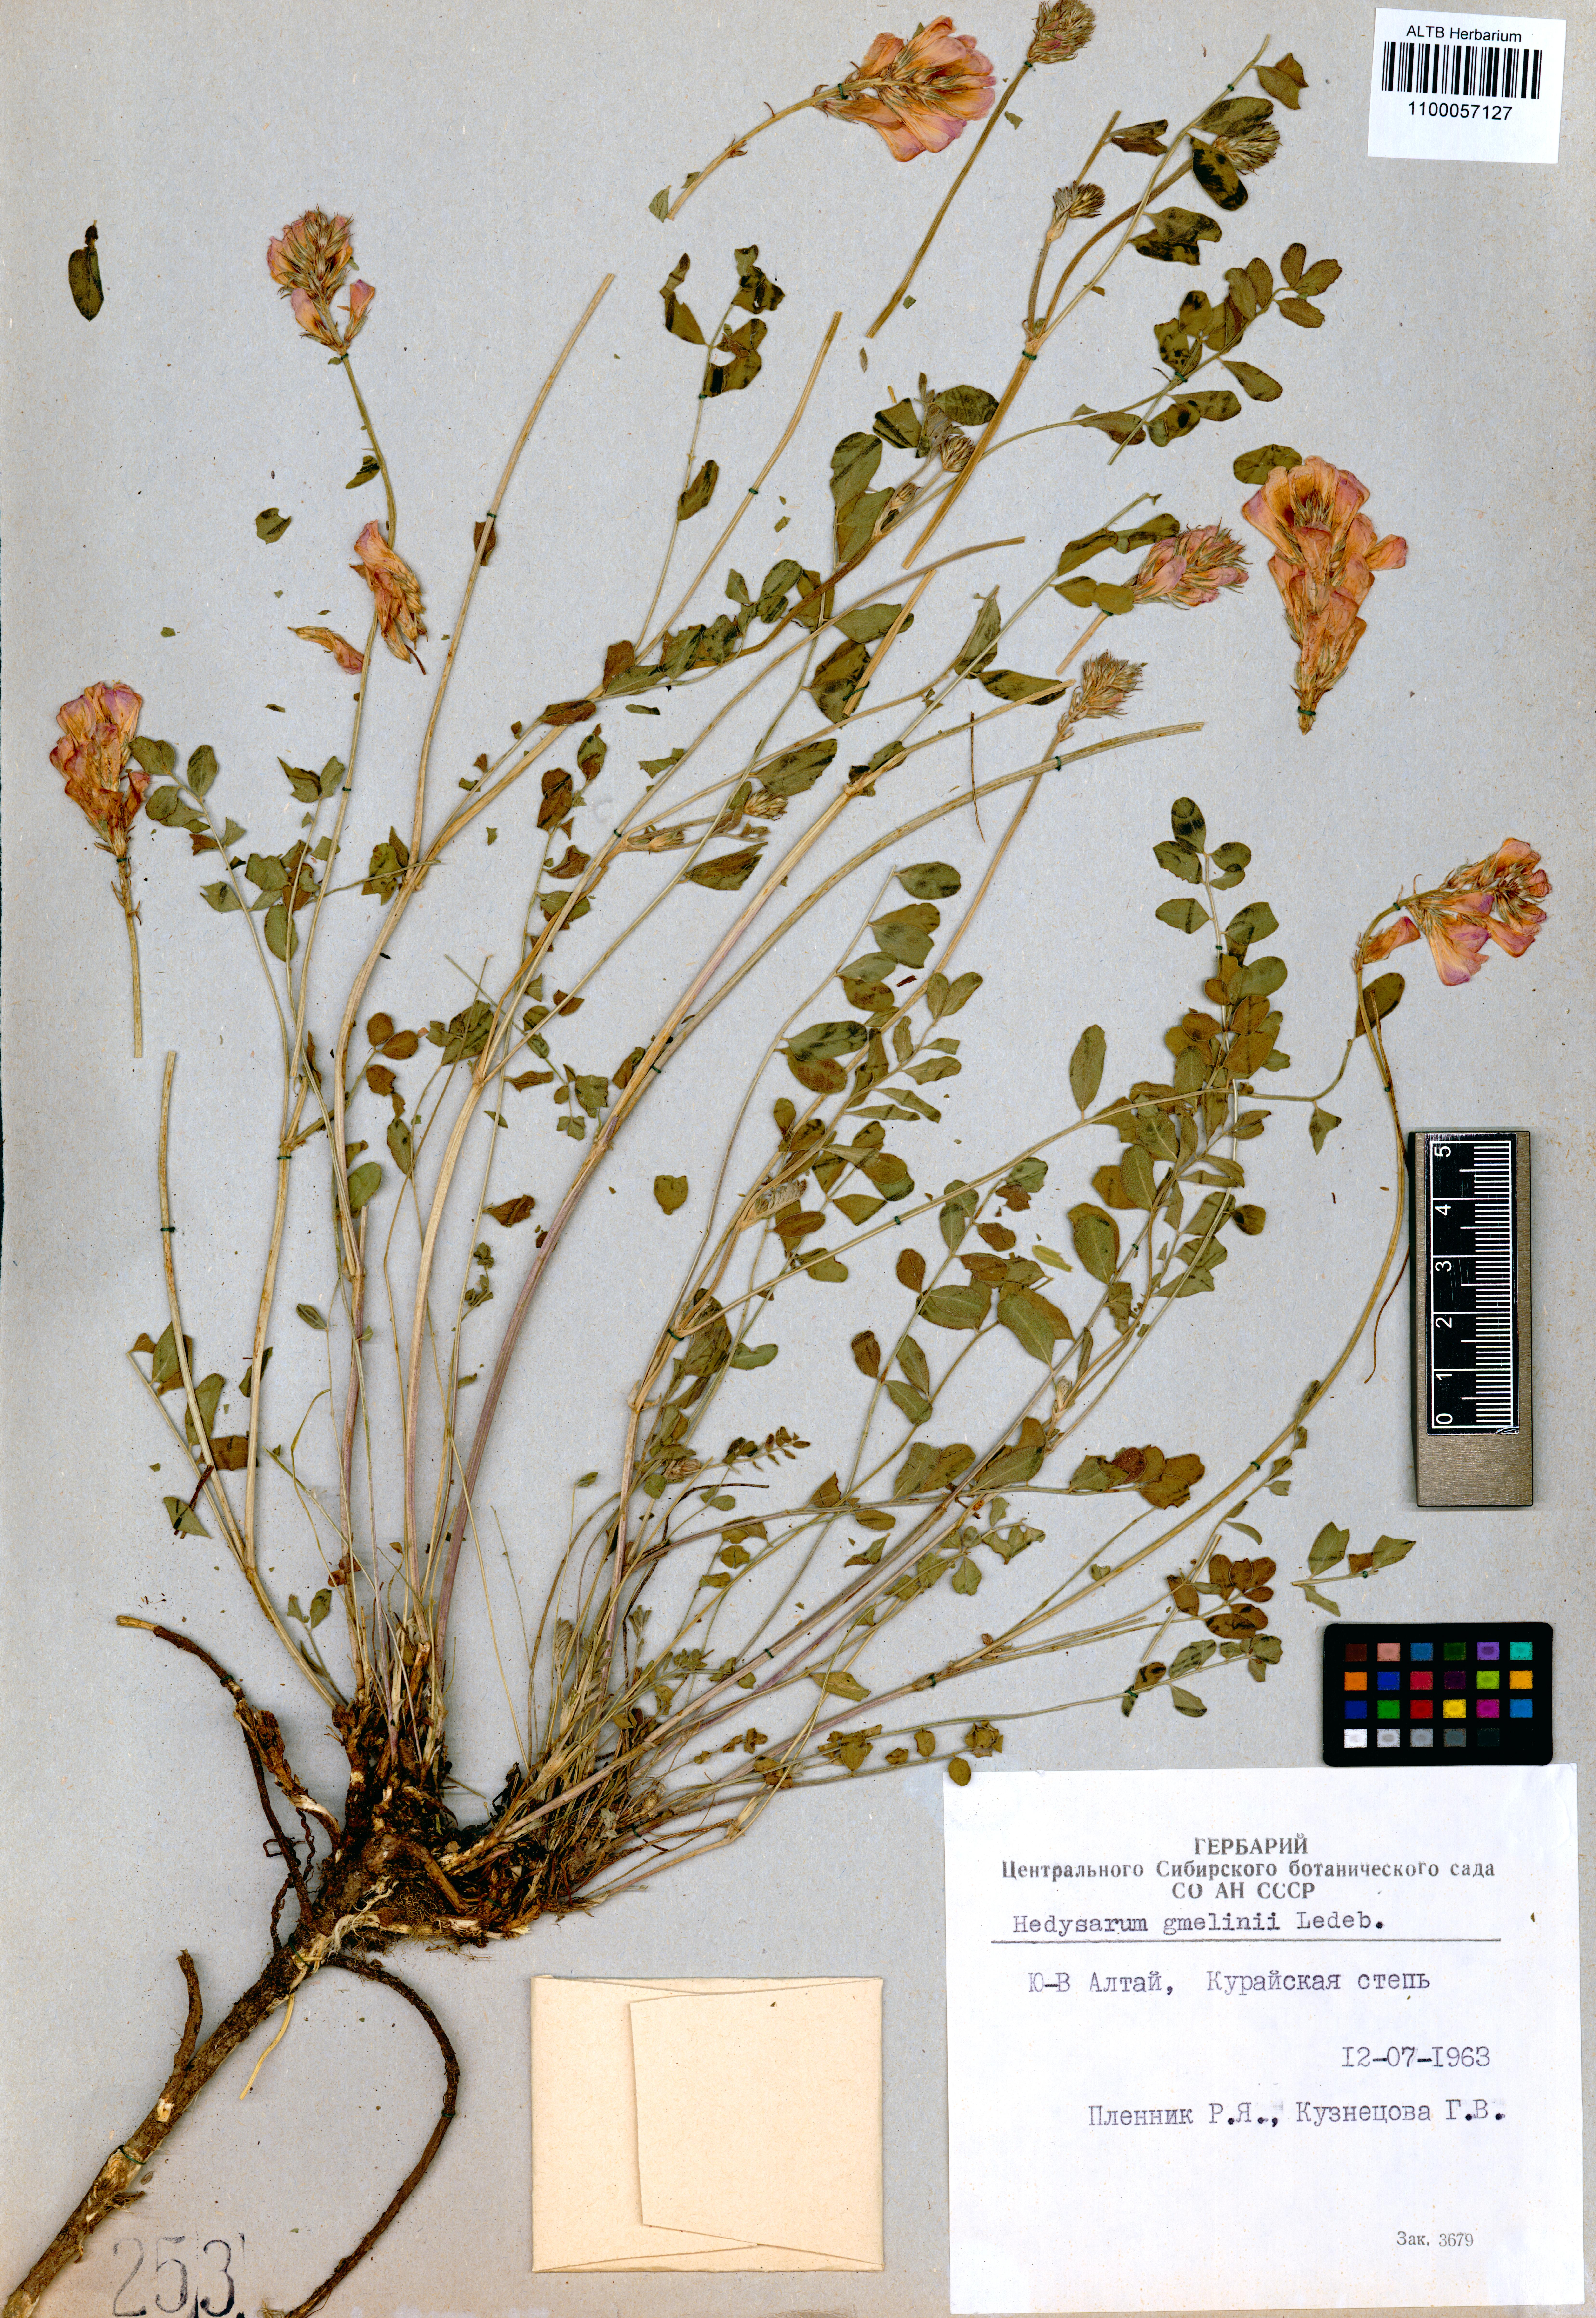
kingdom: Plantae
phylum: Tracheophyta
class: Magnoliopsida
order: Fabales
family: Fabaceae
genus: Hedysarum
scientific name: Hedysarum gmelinii
